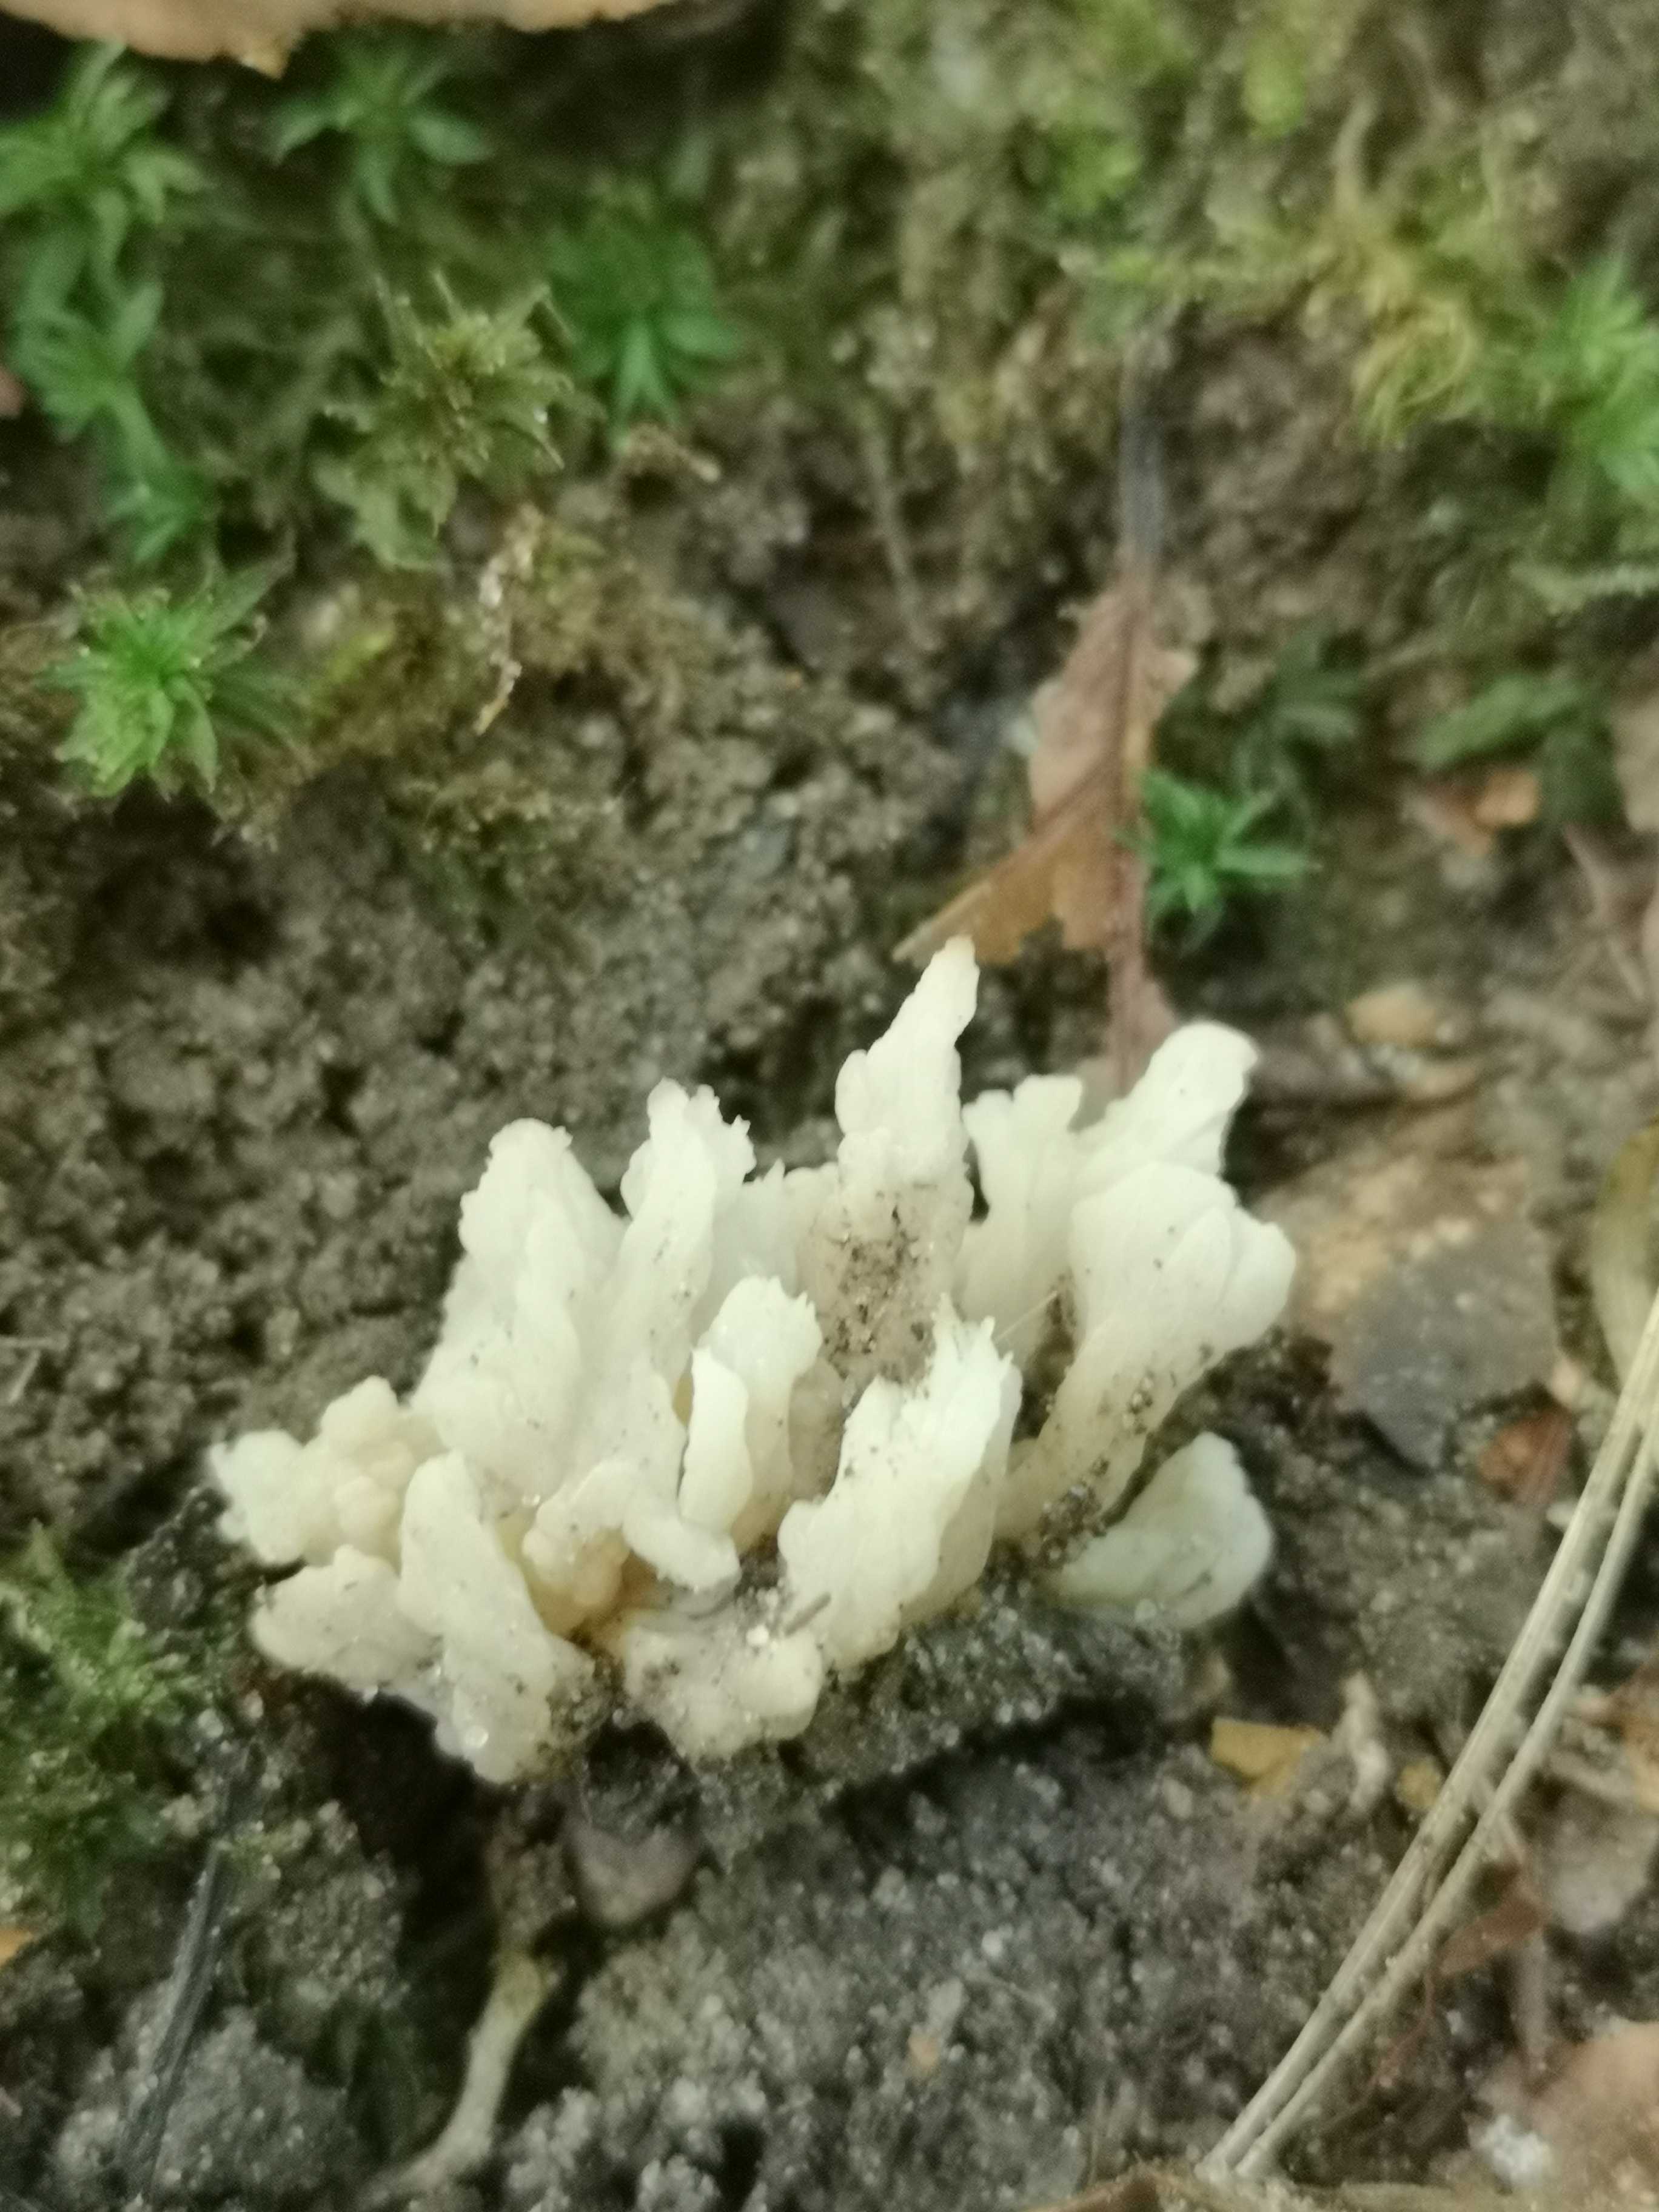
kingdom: Fungi
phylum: Basidiomycota
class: Agaricomycetes
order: Cantharellales
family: Hydnaceae
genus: Clavulina
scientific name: Clavulina
